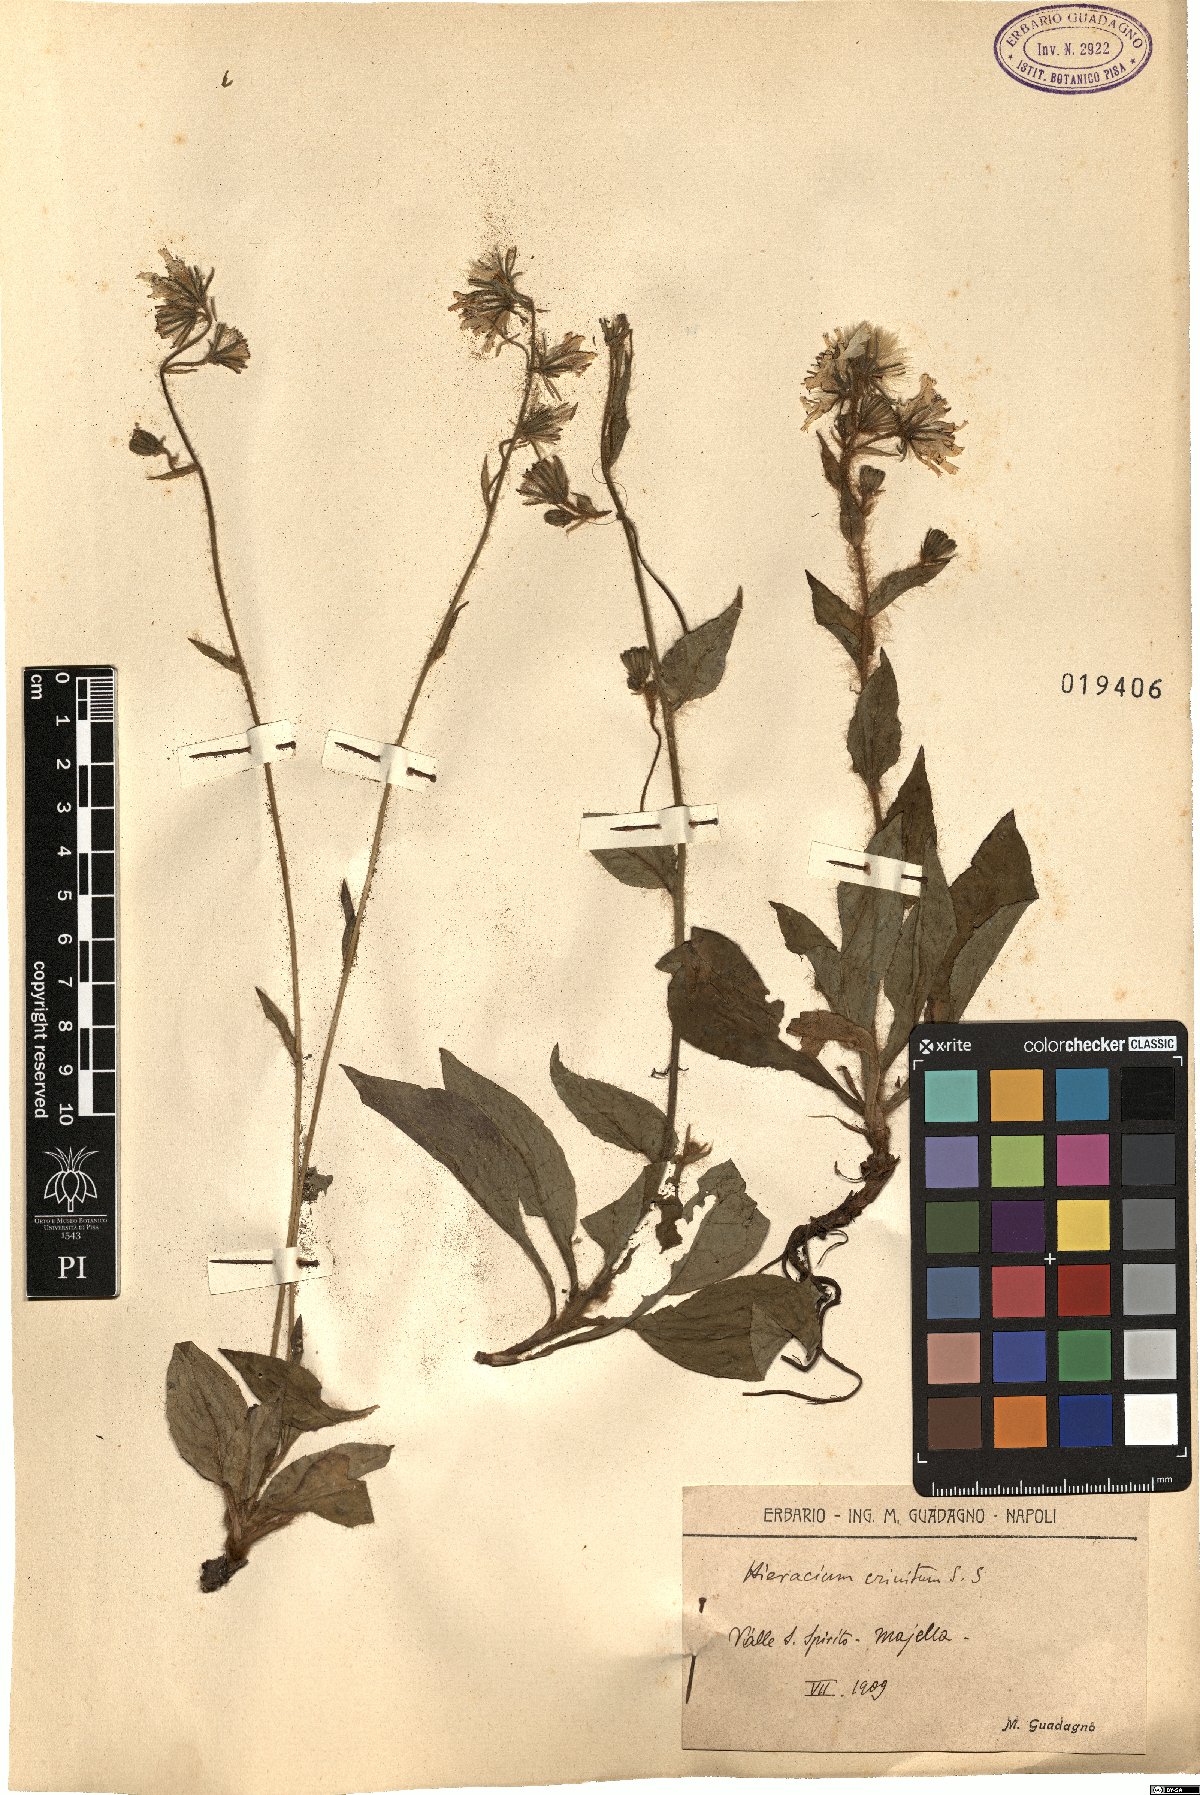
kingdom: Plantae
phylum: Tracheophyta
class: Magnoliopsida
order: Asterales
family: Asteraceae
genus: Hieracium
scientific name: Hieracium racemosum
